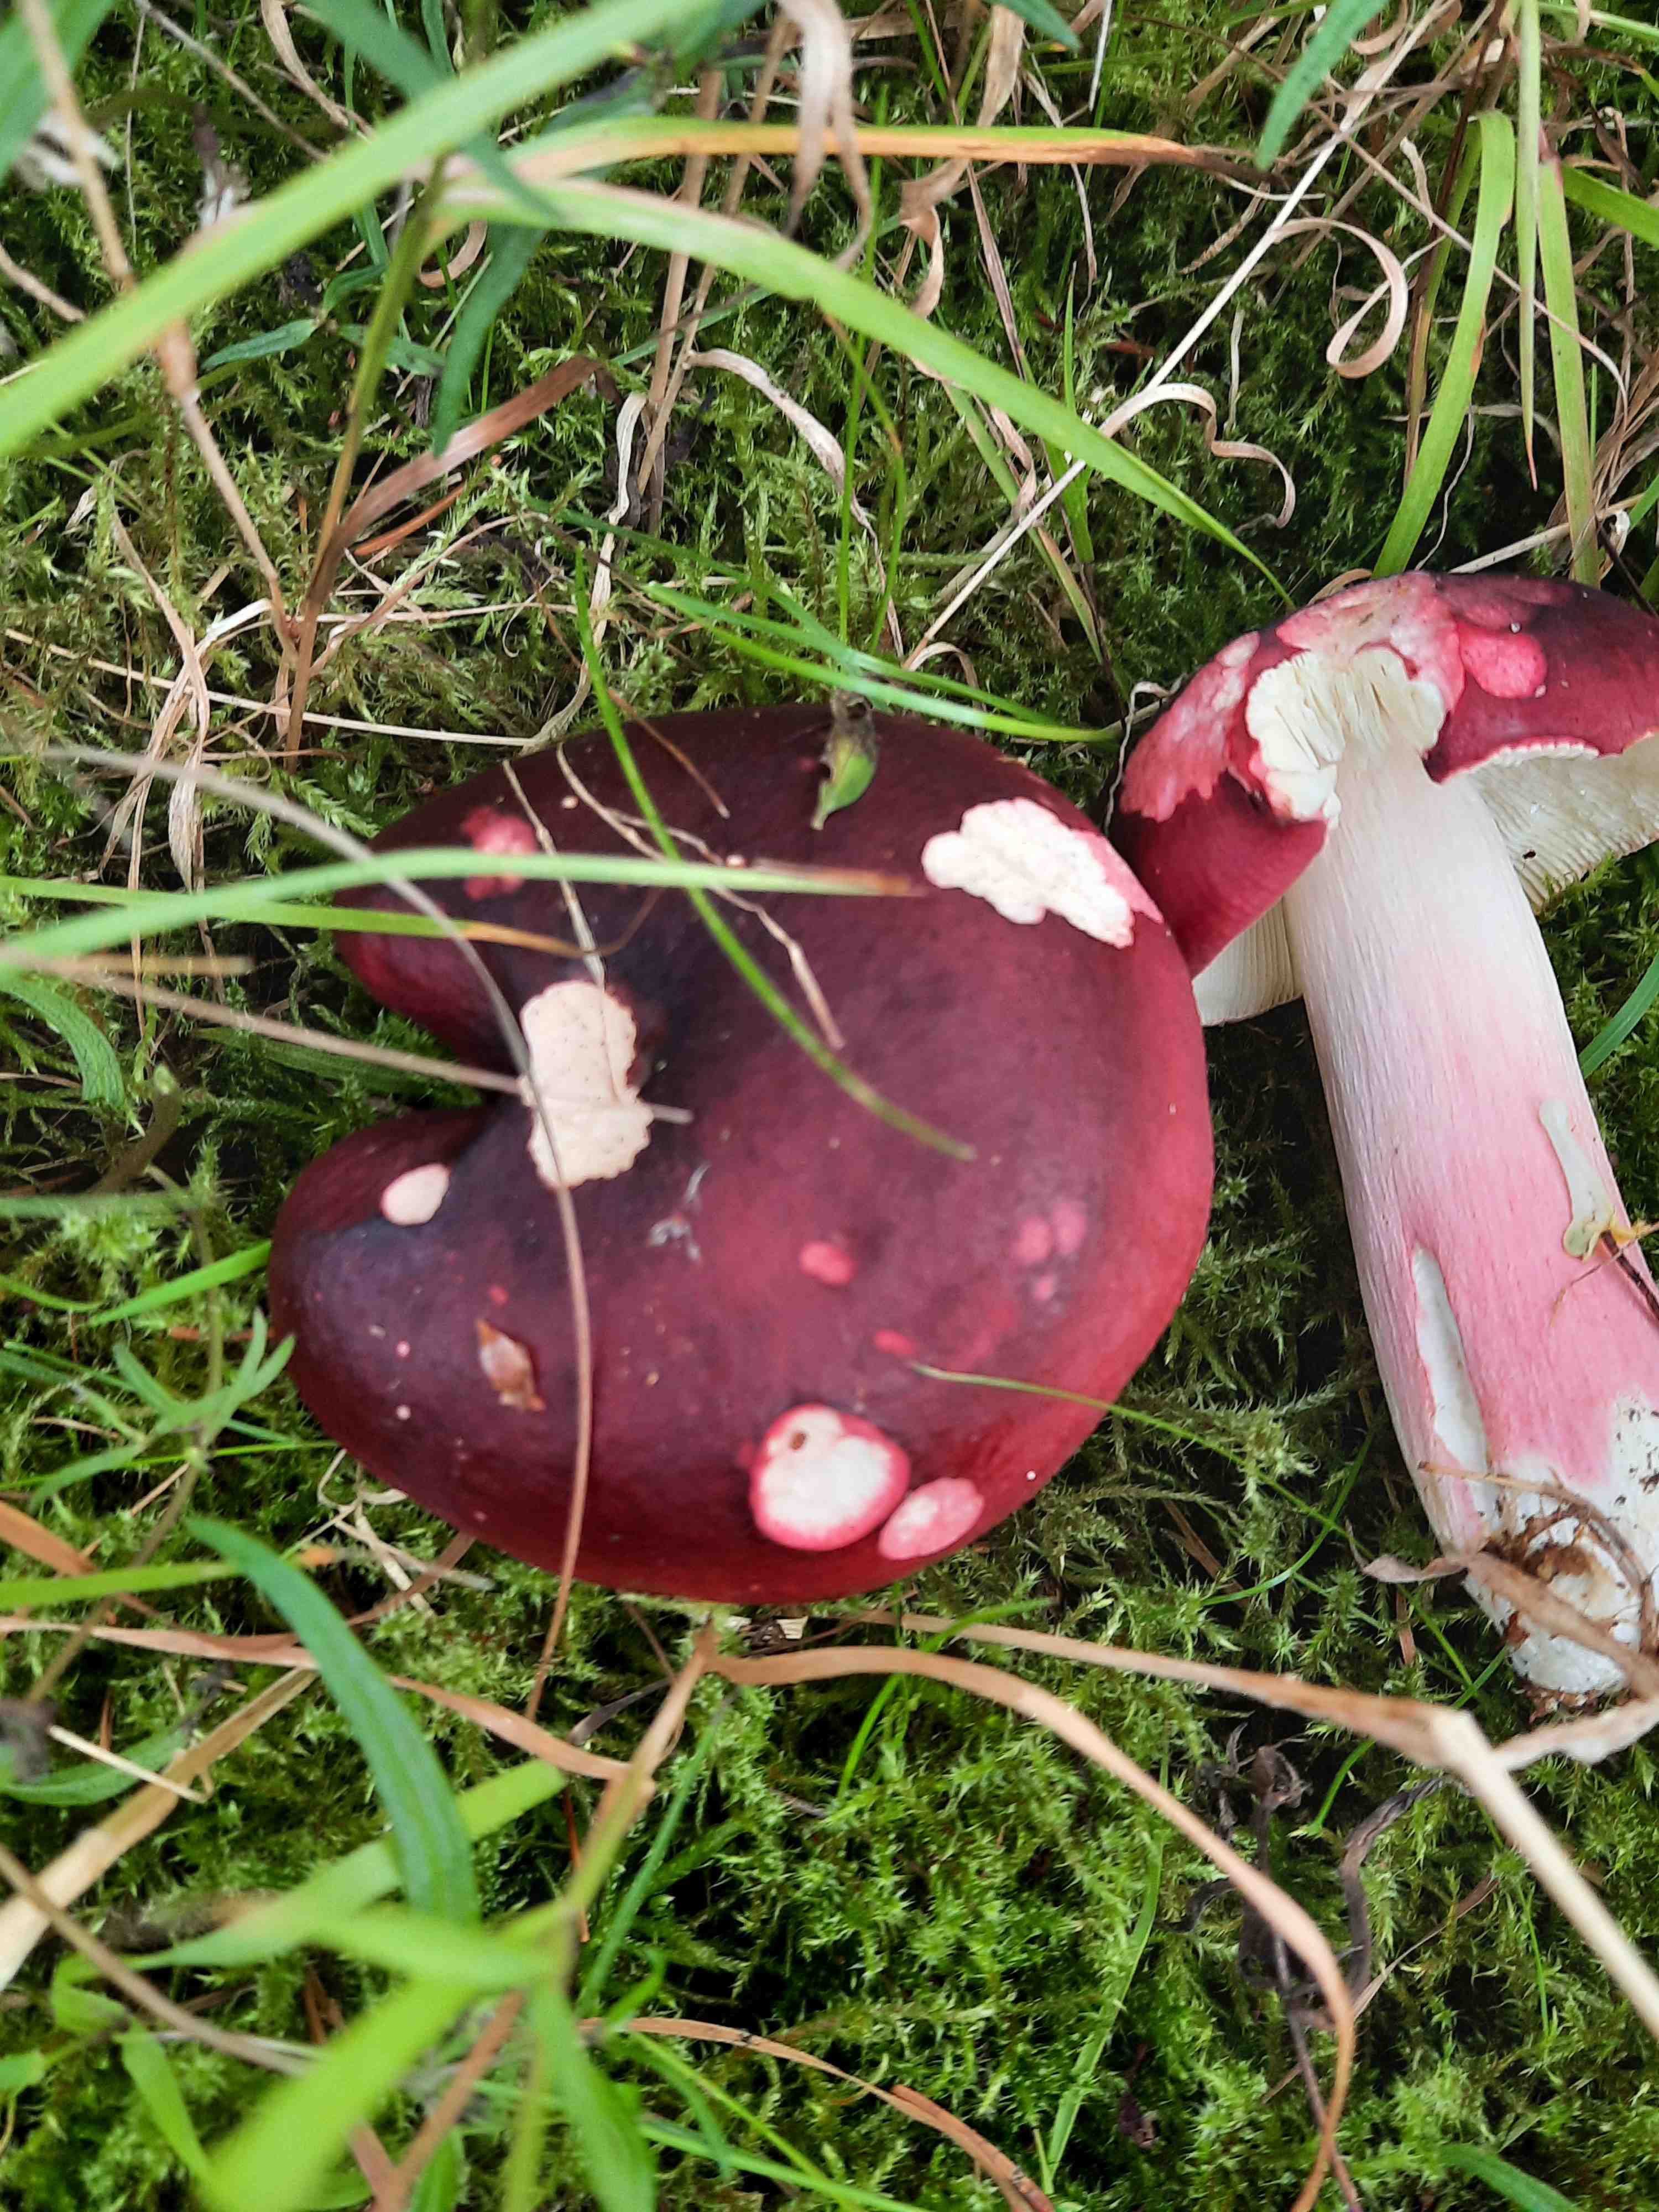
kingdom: Fungi
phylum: Basidiomycota
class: Agaricomycetes
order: Russulales
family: Russulaceae
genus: Russula
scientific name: Russula xerampelina
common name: hummer-skørhat
